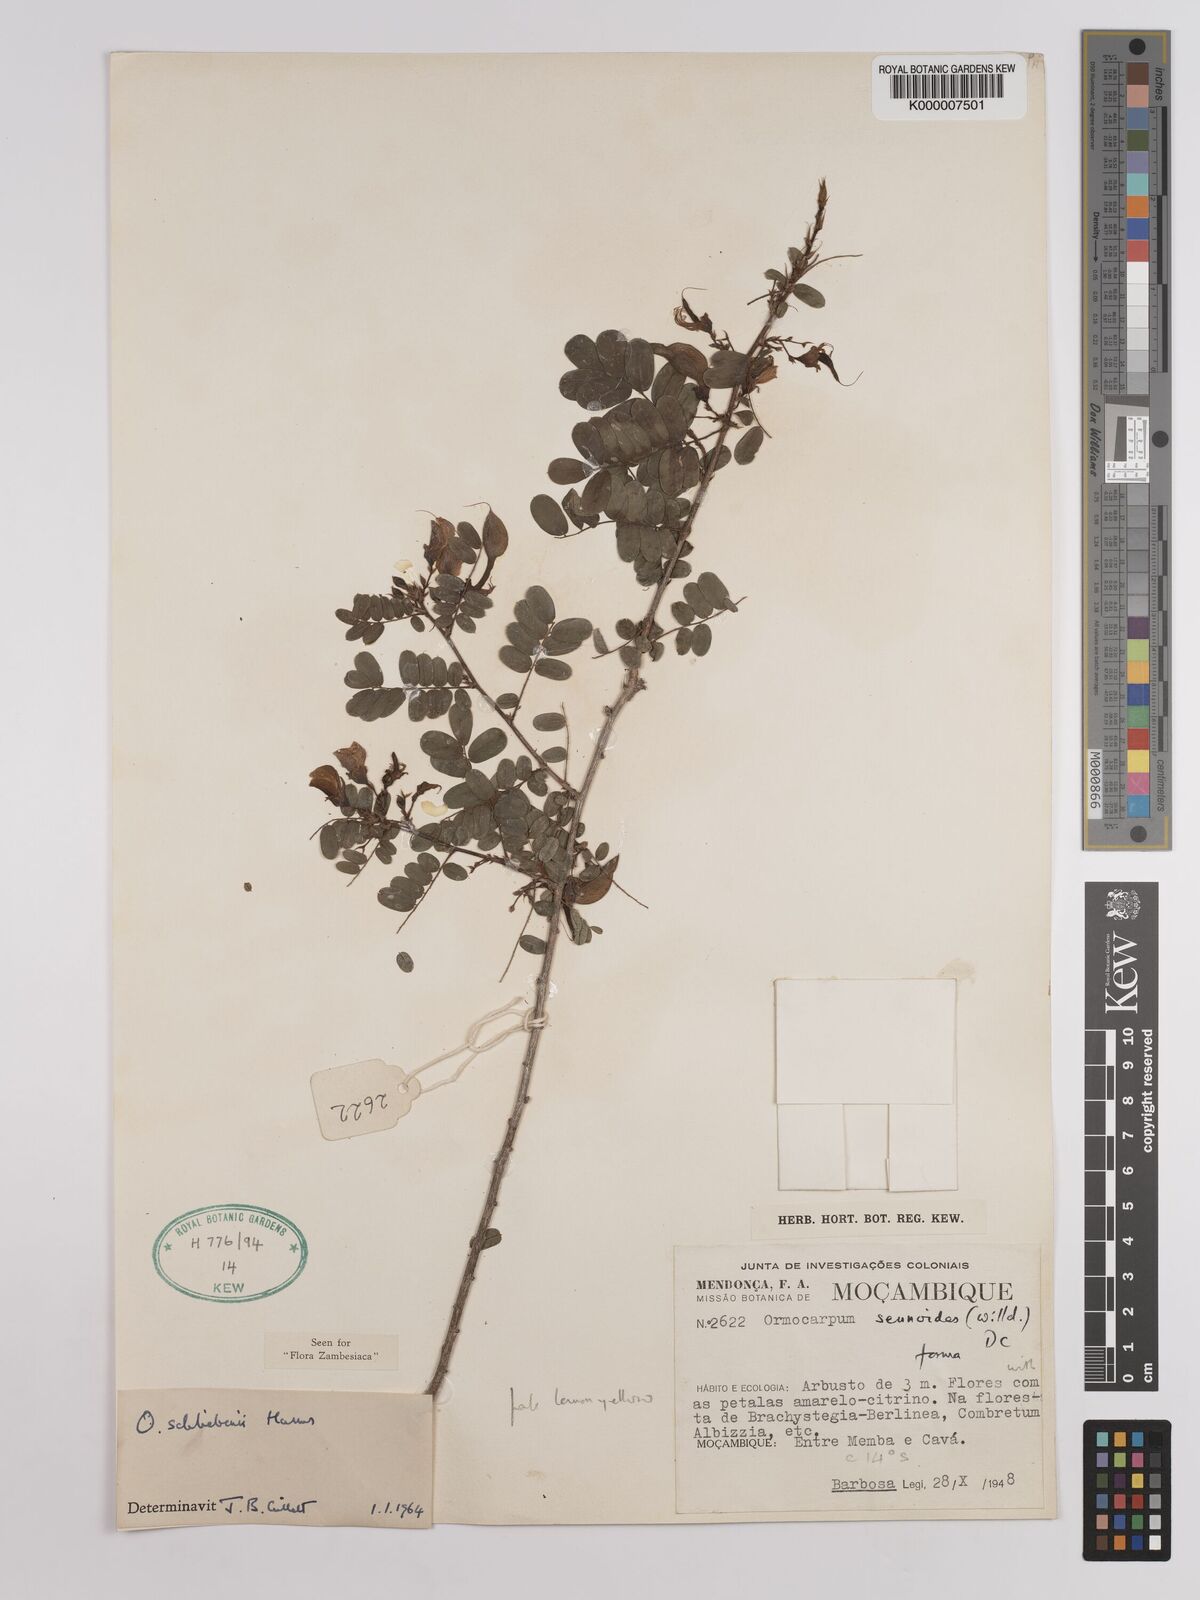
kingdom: Plantae
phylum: Tracheophyta
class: Magnoliopsida
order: Fabales
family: Fabaceae
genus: Ormocarpum
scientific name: Ormocarpum schliebenii
